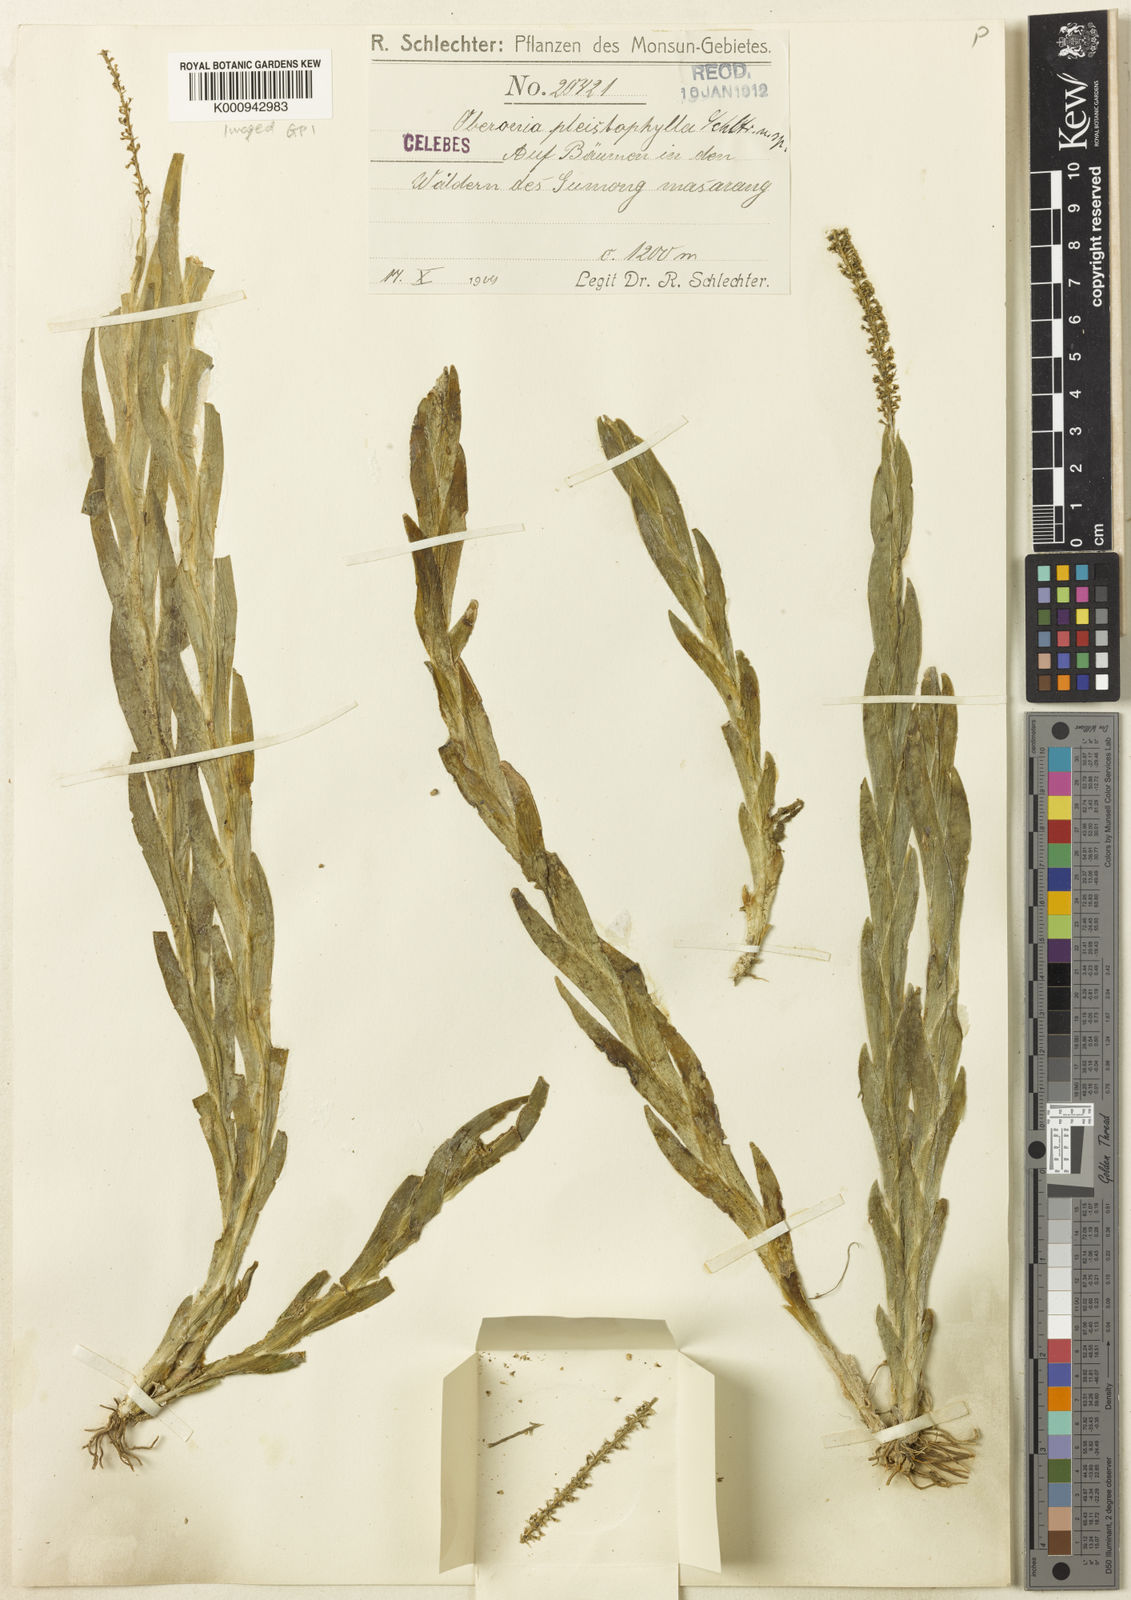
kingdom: Plantae
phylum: Tracheophyta
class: Liliopsida
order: Asparagales
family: Orchidaceae
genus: Oberonia
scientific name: Oberonia pleistophylla
